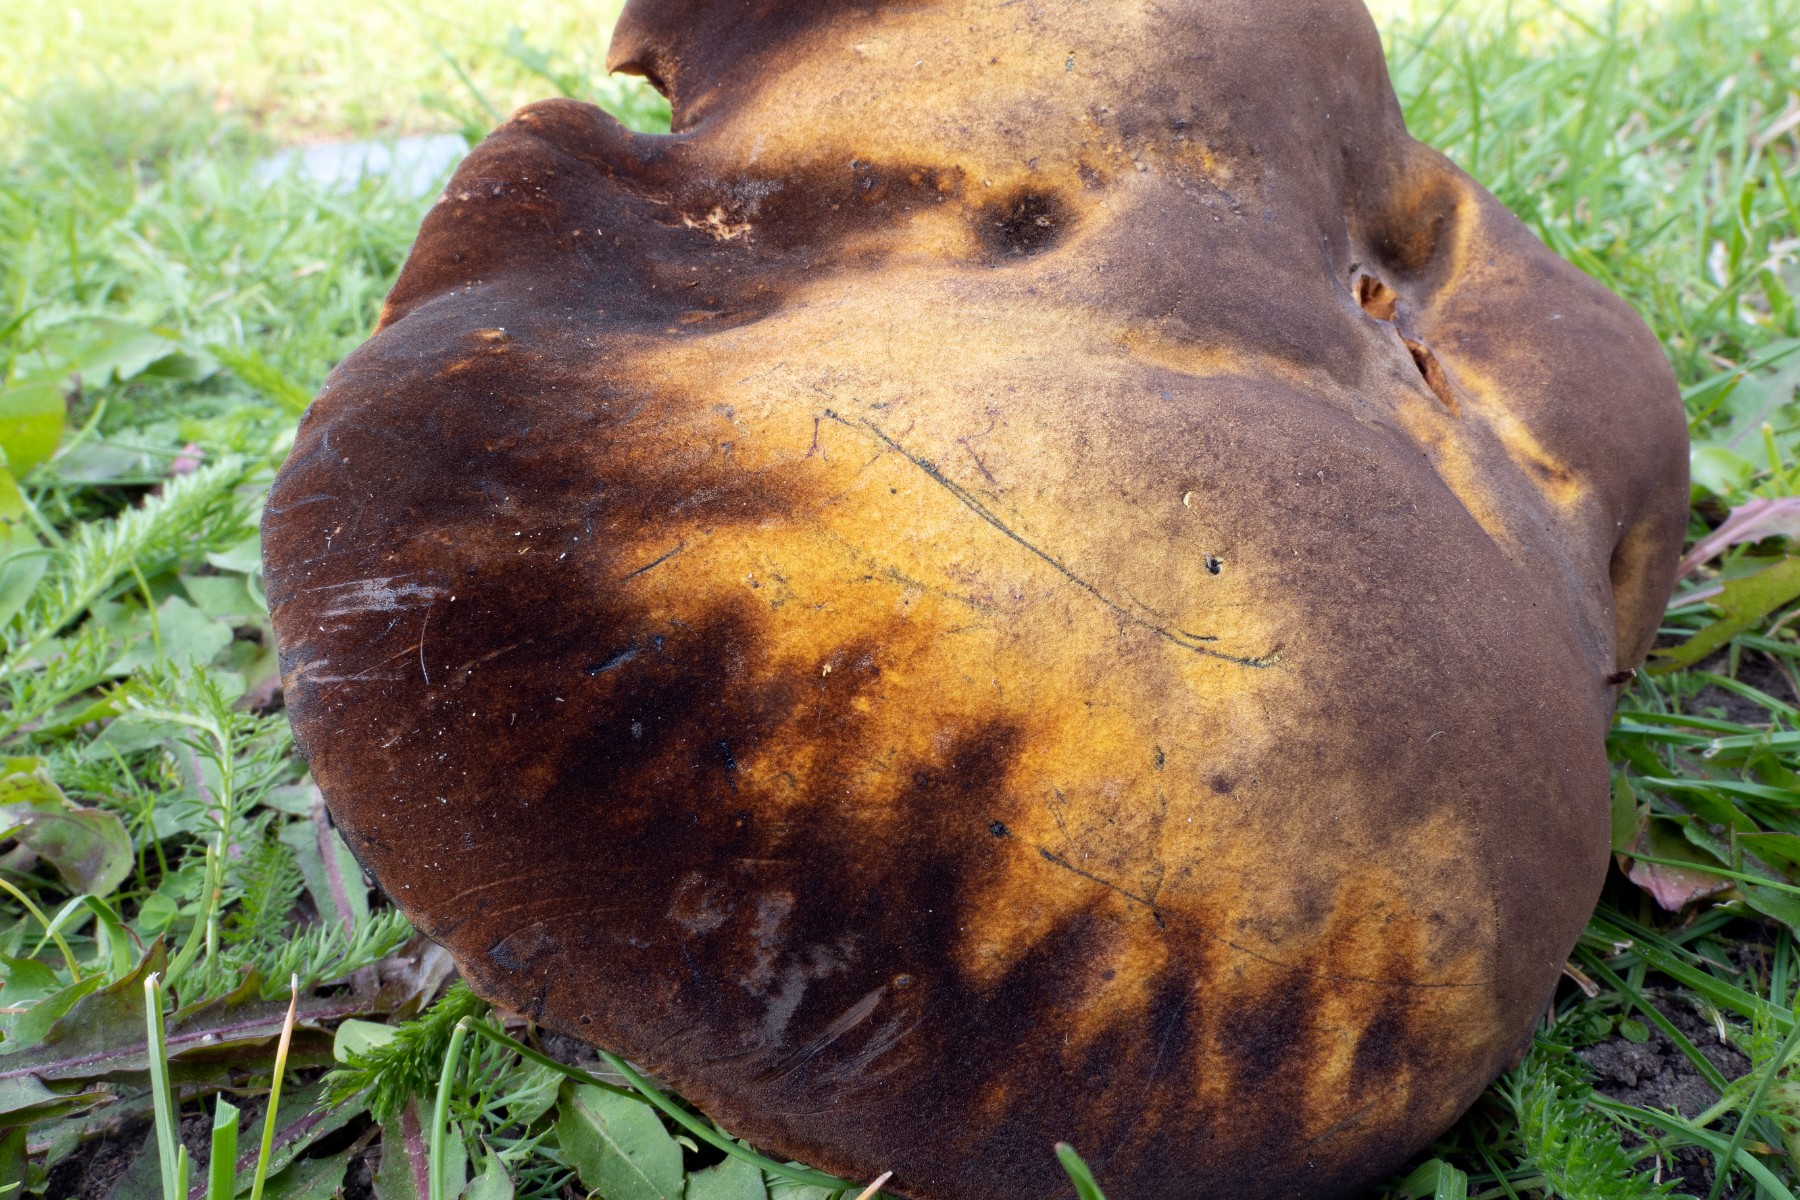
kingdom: Fungi
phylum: Basidiomycota
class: Agaricomycetes
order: Boletales
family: Boletaceae
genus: Neoboletus
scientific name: Neoboletus xanthopus
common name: finprikket indigorørhat
